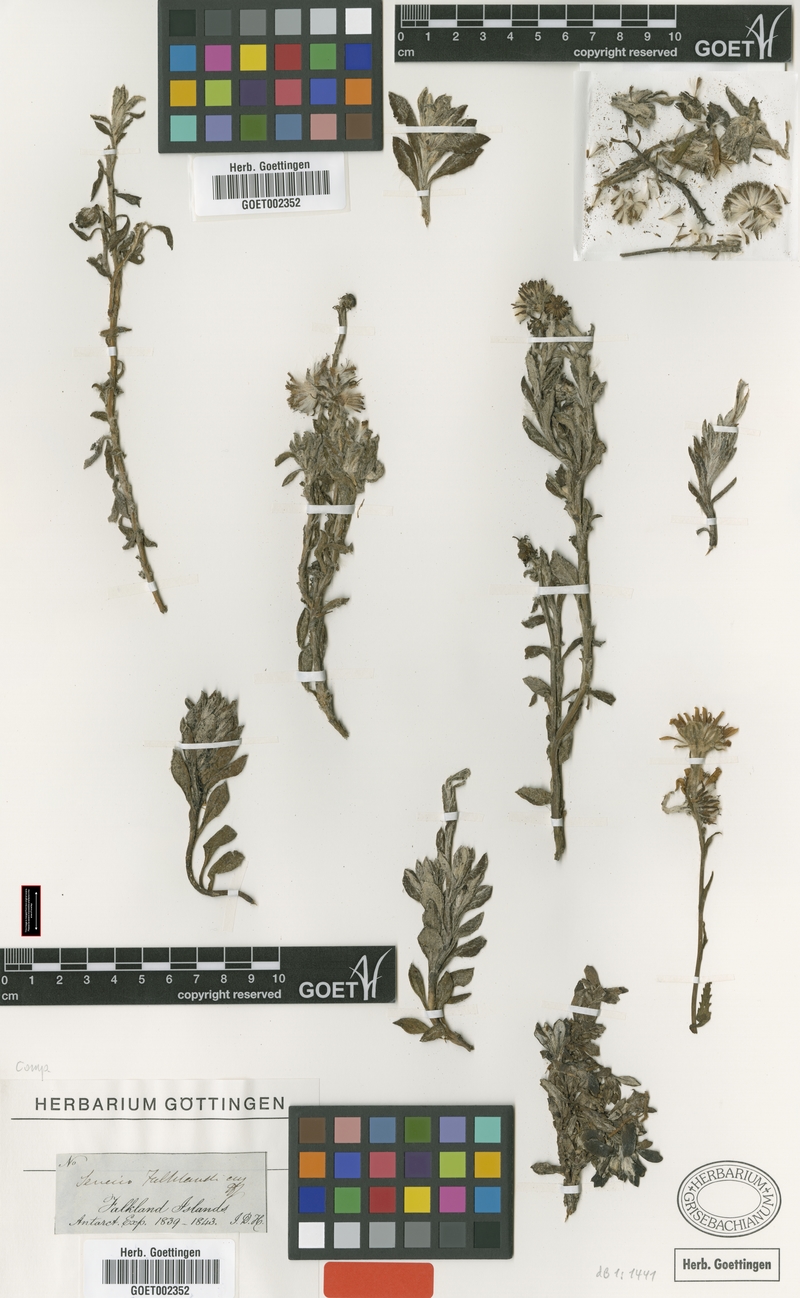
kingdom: Plantae
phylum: Tracheophyta
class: Magnoliopsida
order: Asterales
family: Asteraceae
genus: Senecio
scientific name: Senecio falklandicus
